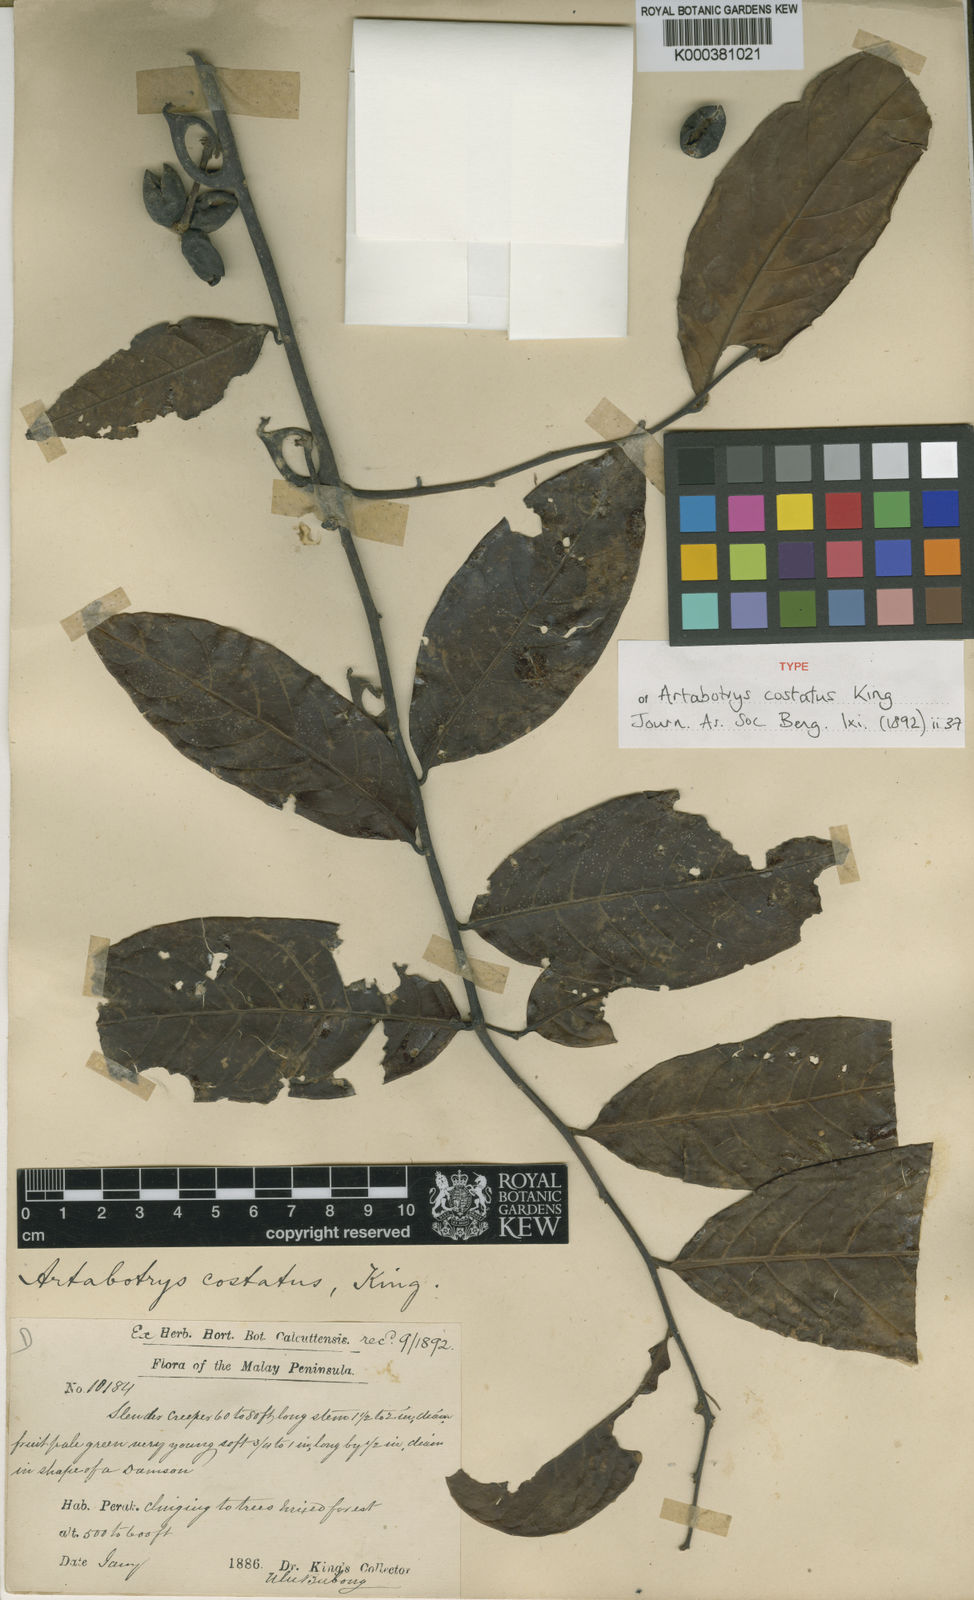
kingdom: Plantae
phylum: Tracheophyta
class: Magnoliopsida
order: Magnoliales
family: Annonaceae
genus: Artabotrys
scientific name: Artabotrys costatus
